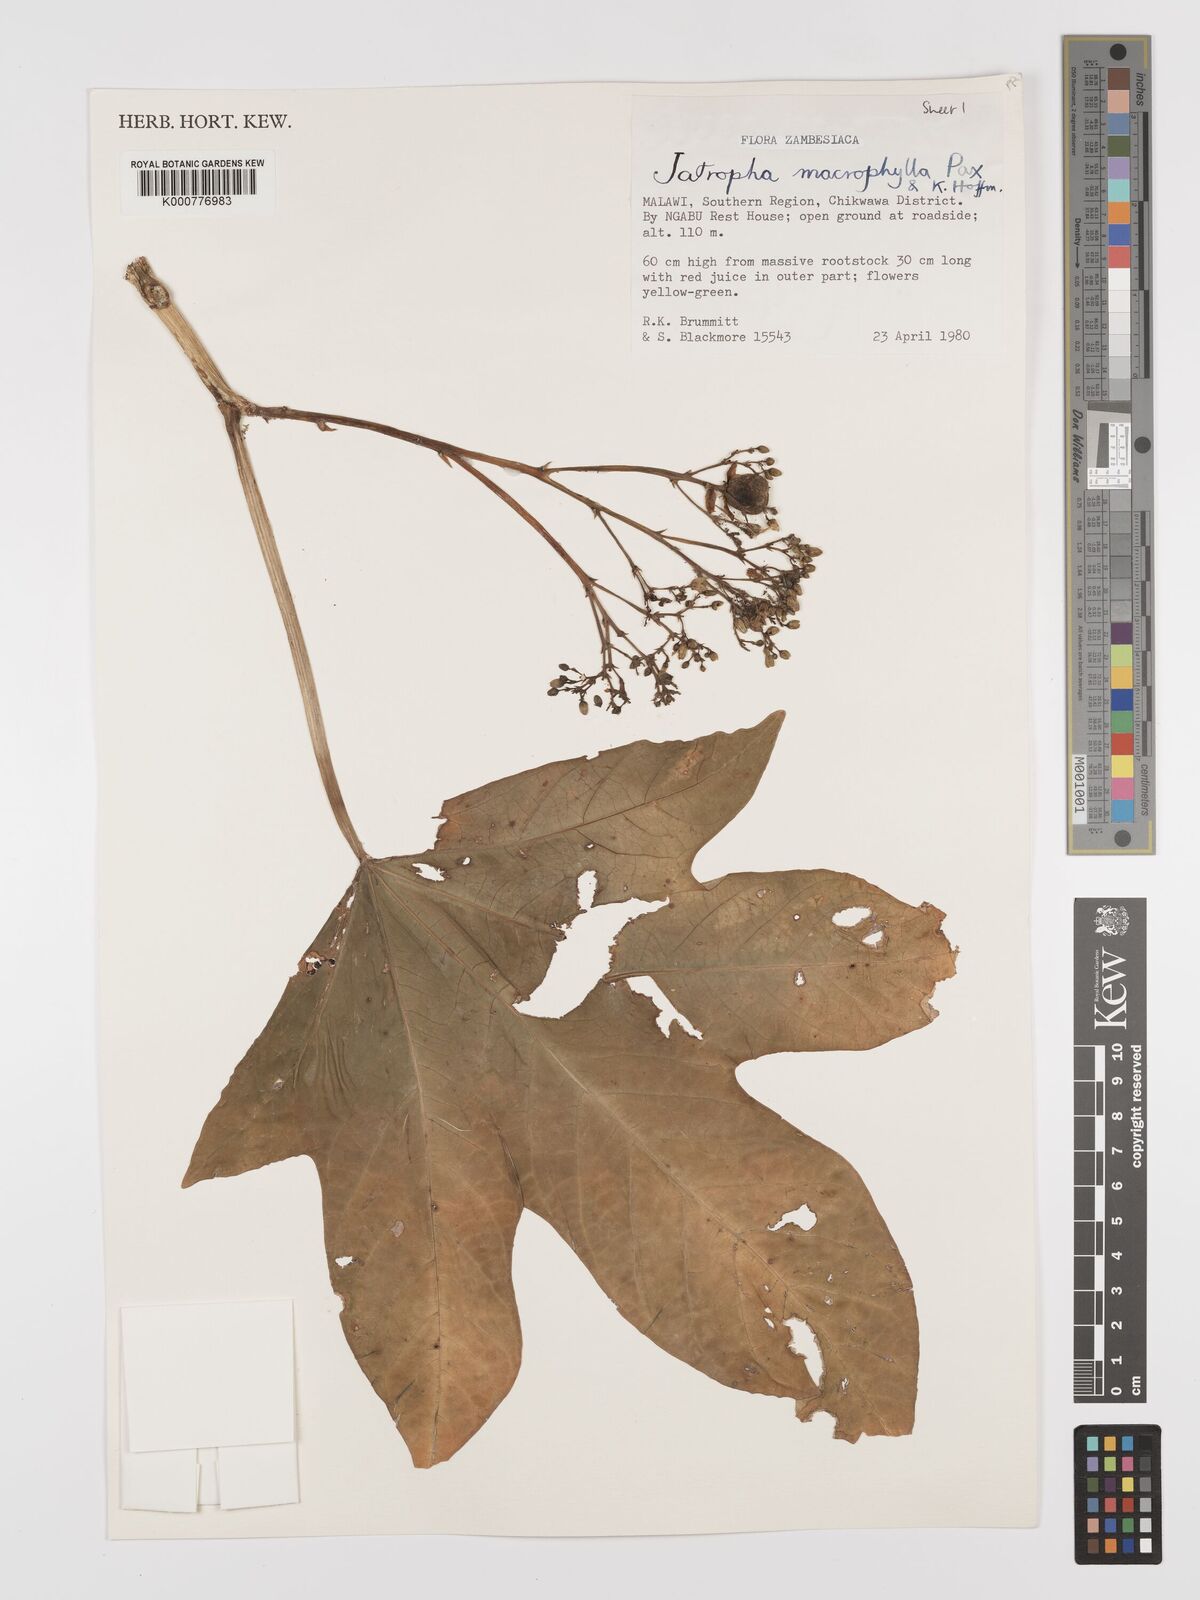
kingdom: Plantae
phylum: Tracheophyta
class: Magnoliopsida
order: Malpighiales
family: Euphorbiaceae
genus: Jatropha
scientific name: Jatropha macrophylla
